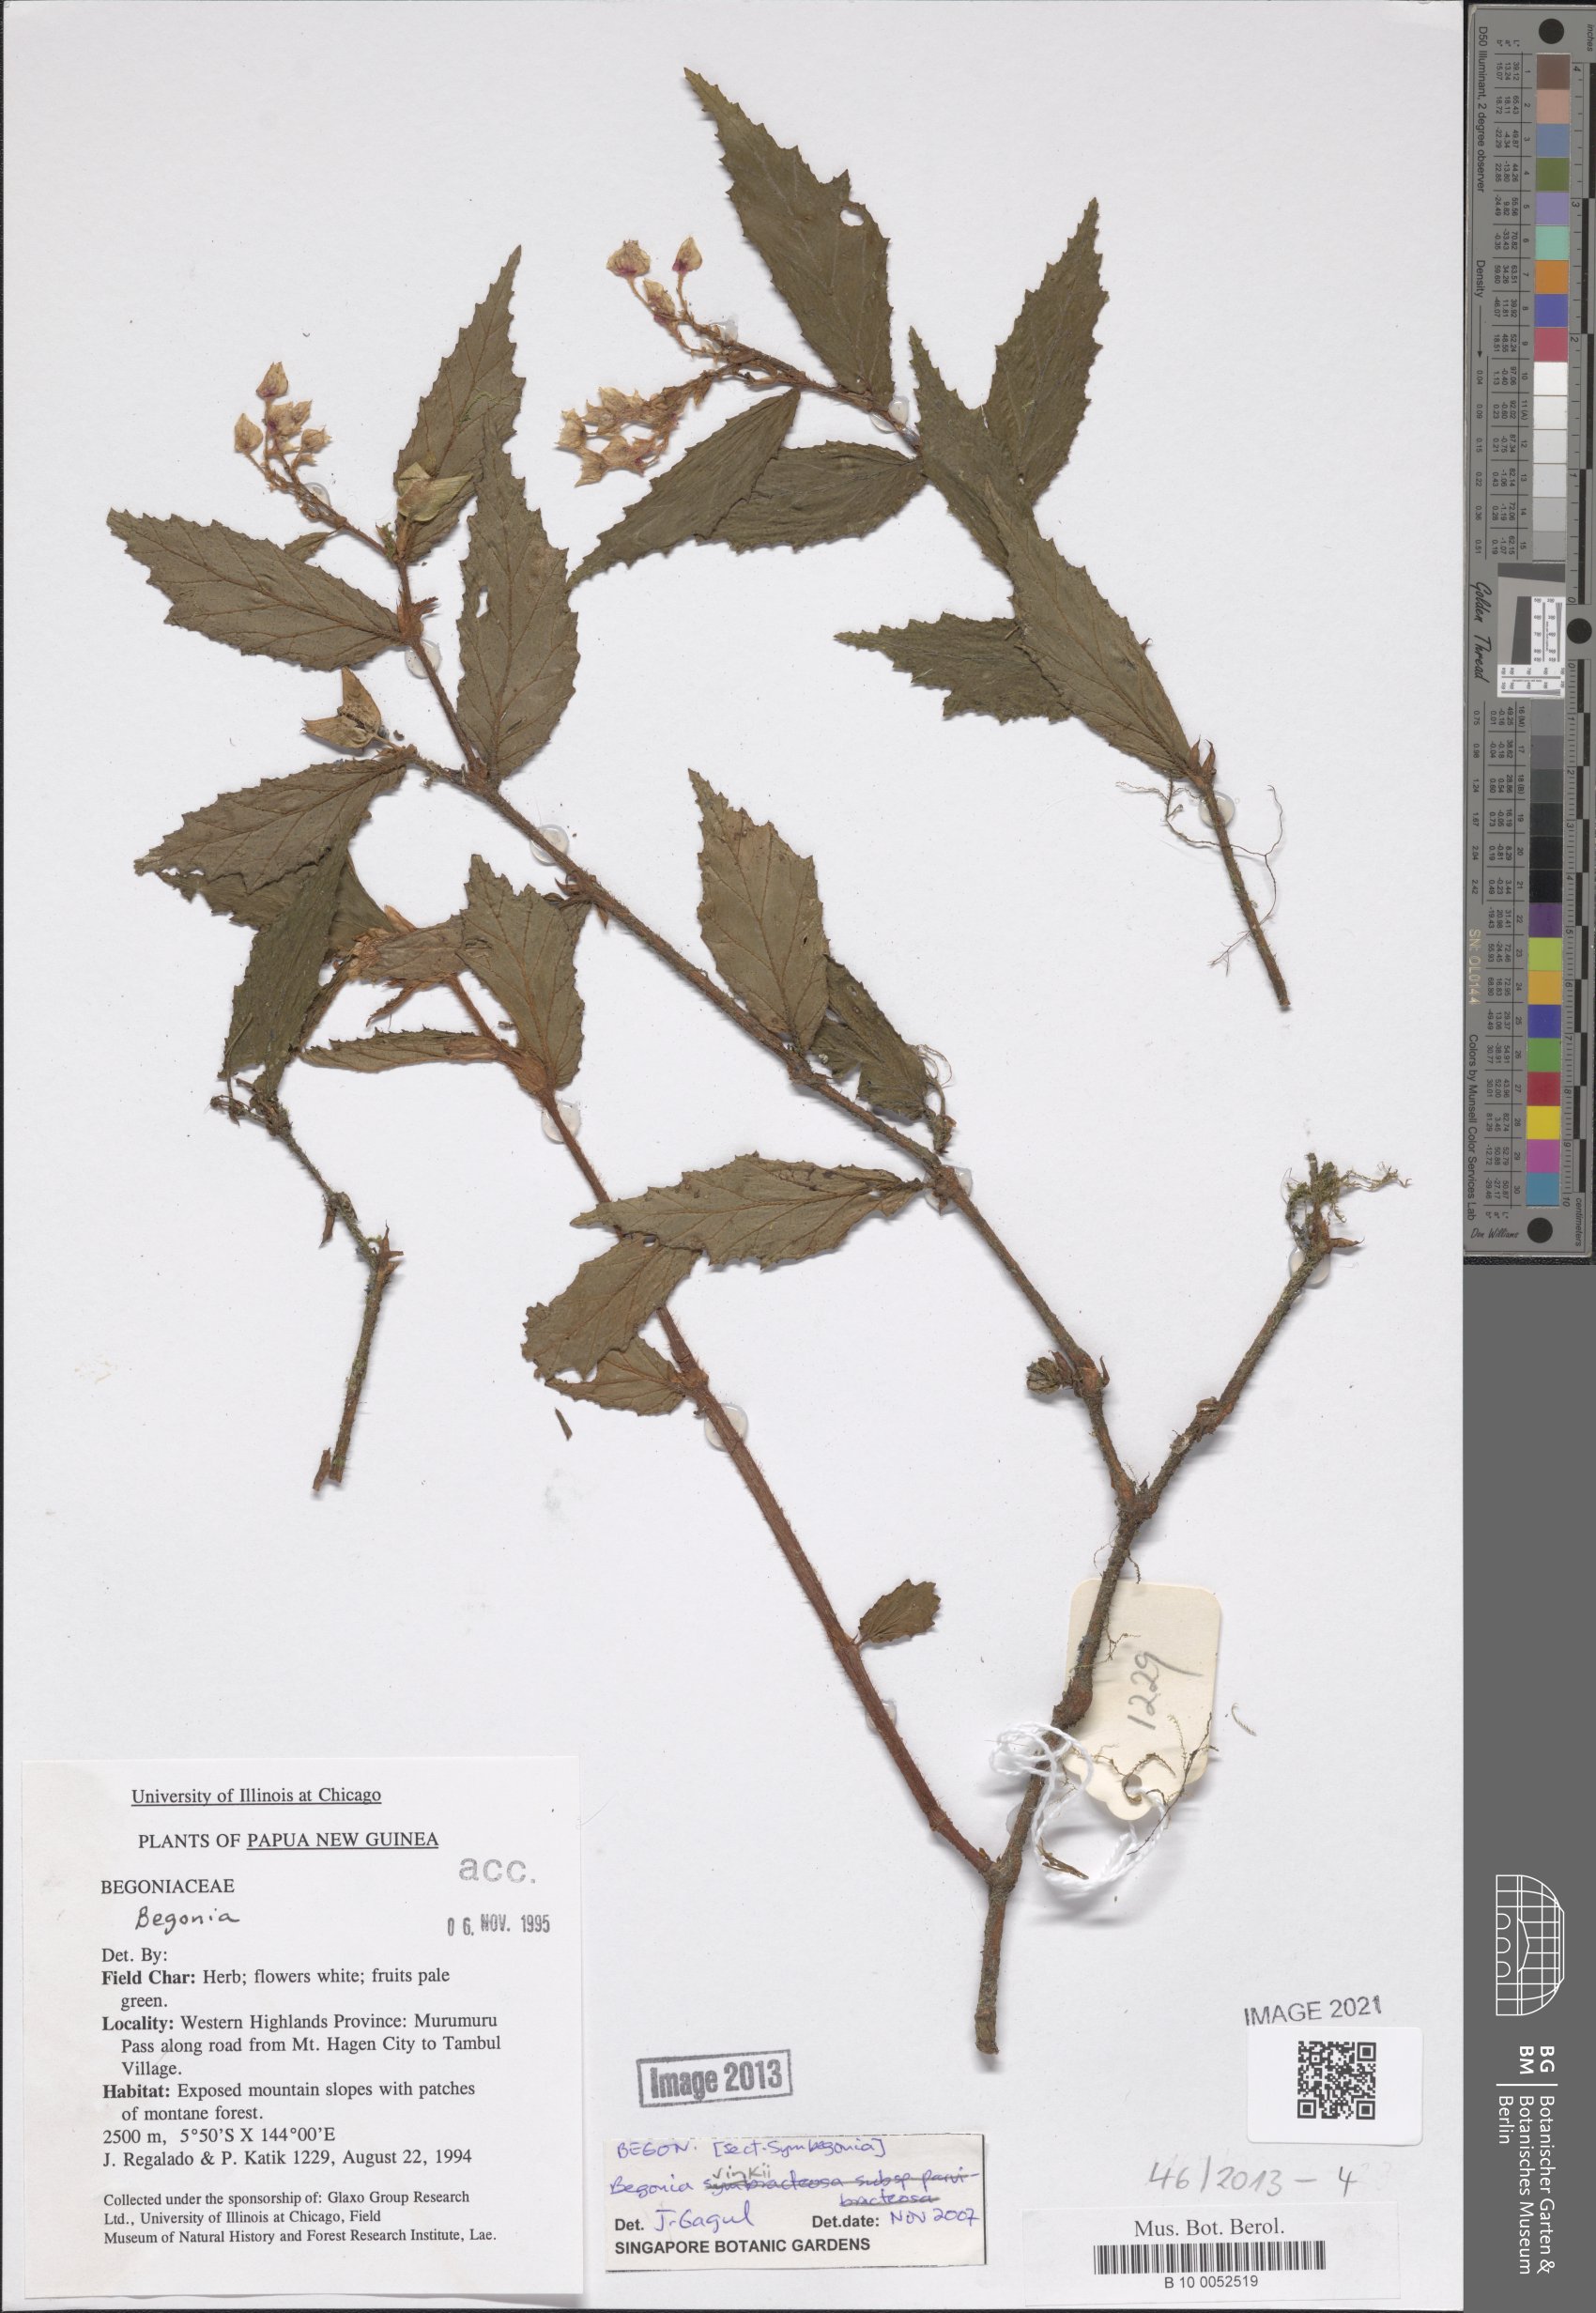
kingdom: Plantae
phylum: Tracheophyta
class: Magnoliopsida
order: Cucurbitales
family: Begoniaceae
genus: Begonia
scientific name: Begonia vinkii
